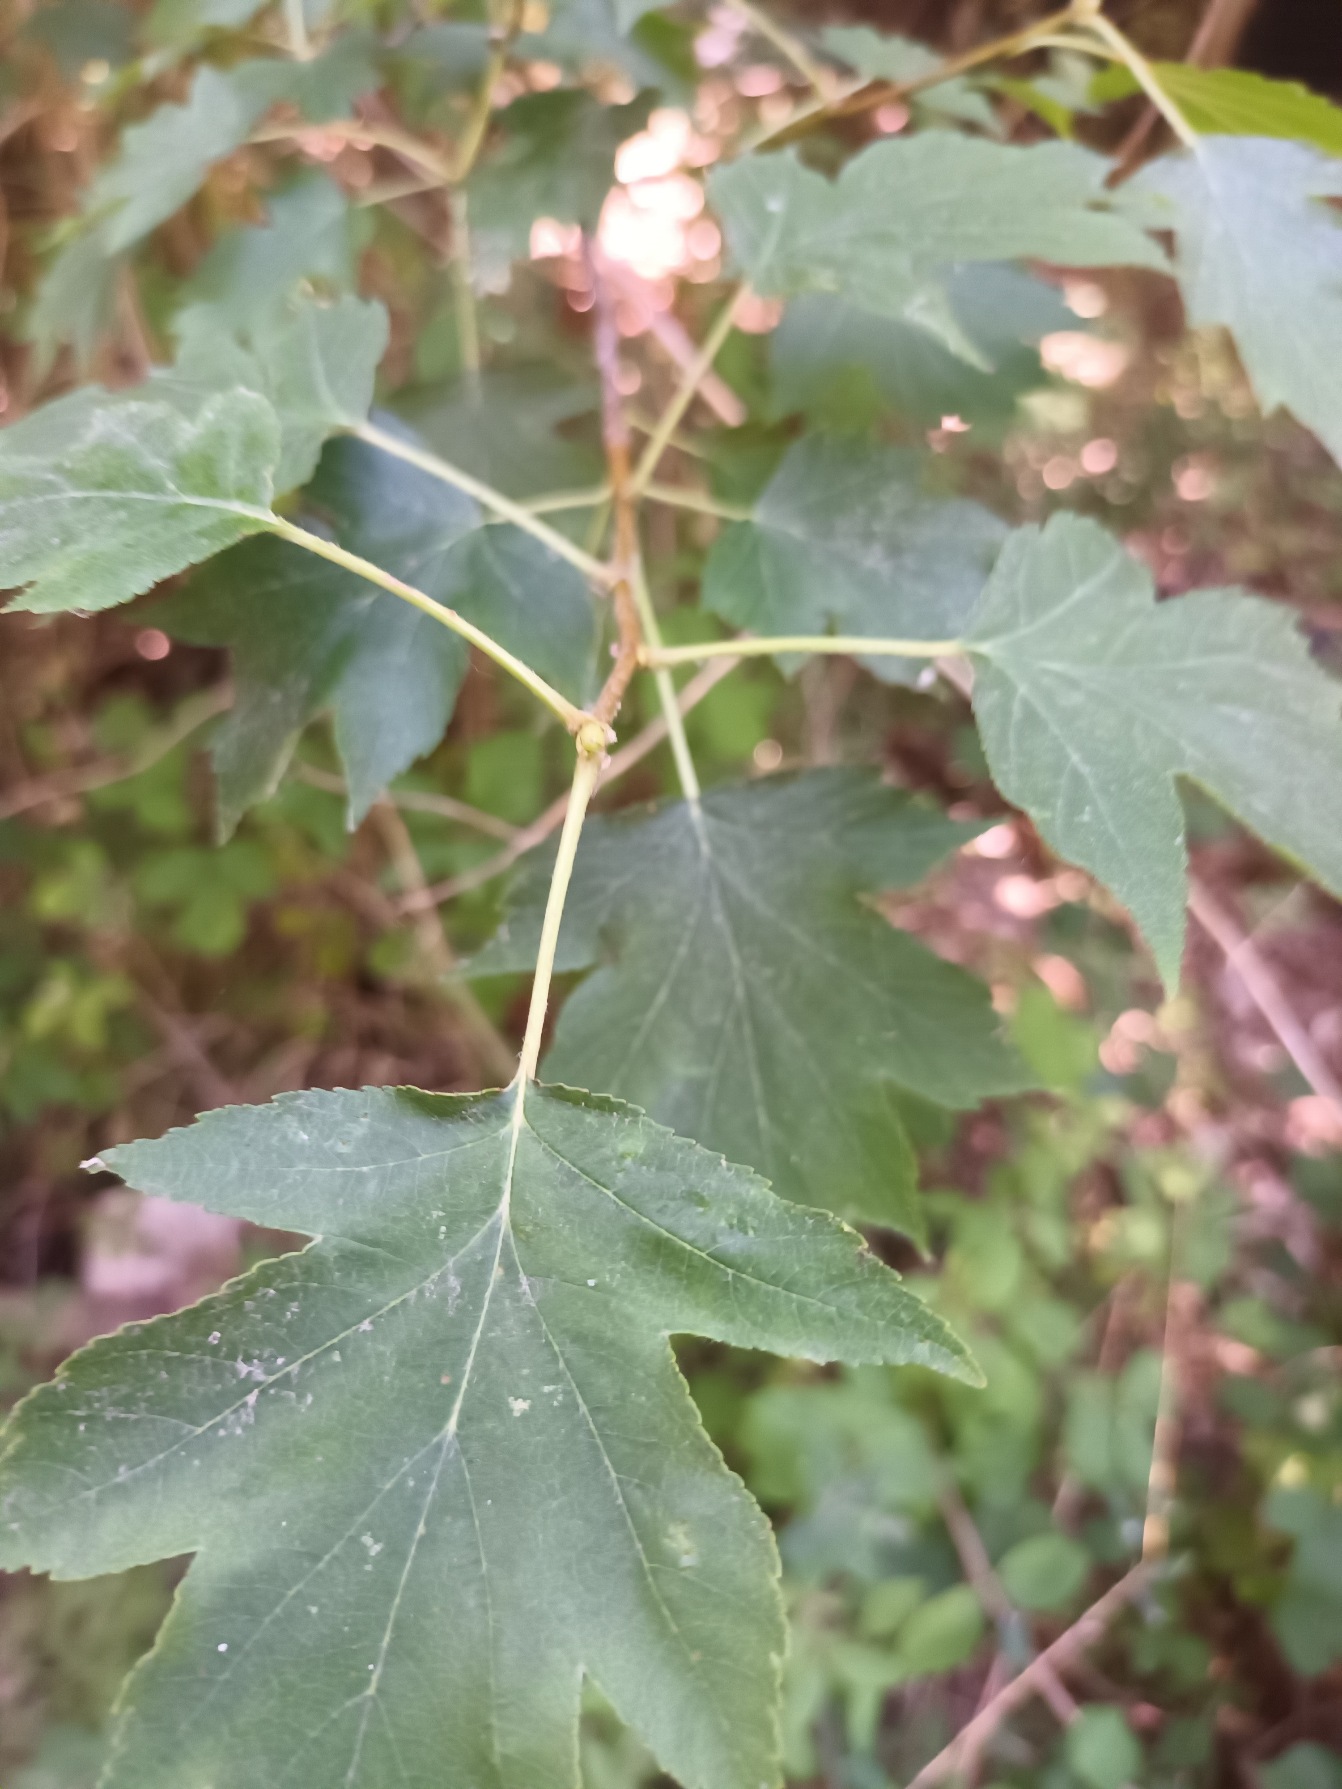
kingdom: Plantae
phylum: Tracheophyta
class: Magnoliopsida
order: Rosales
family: Rosaceae
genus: Torminalis
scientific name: Torminalis glaberrima
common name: Tarmvrid-røn
